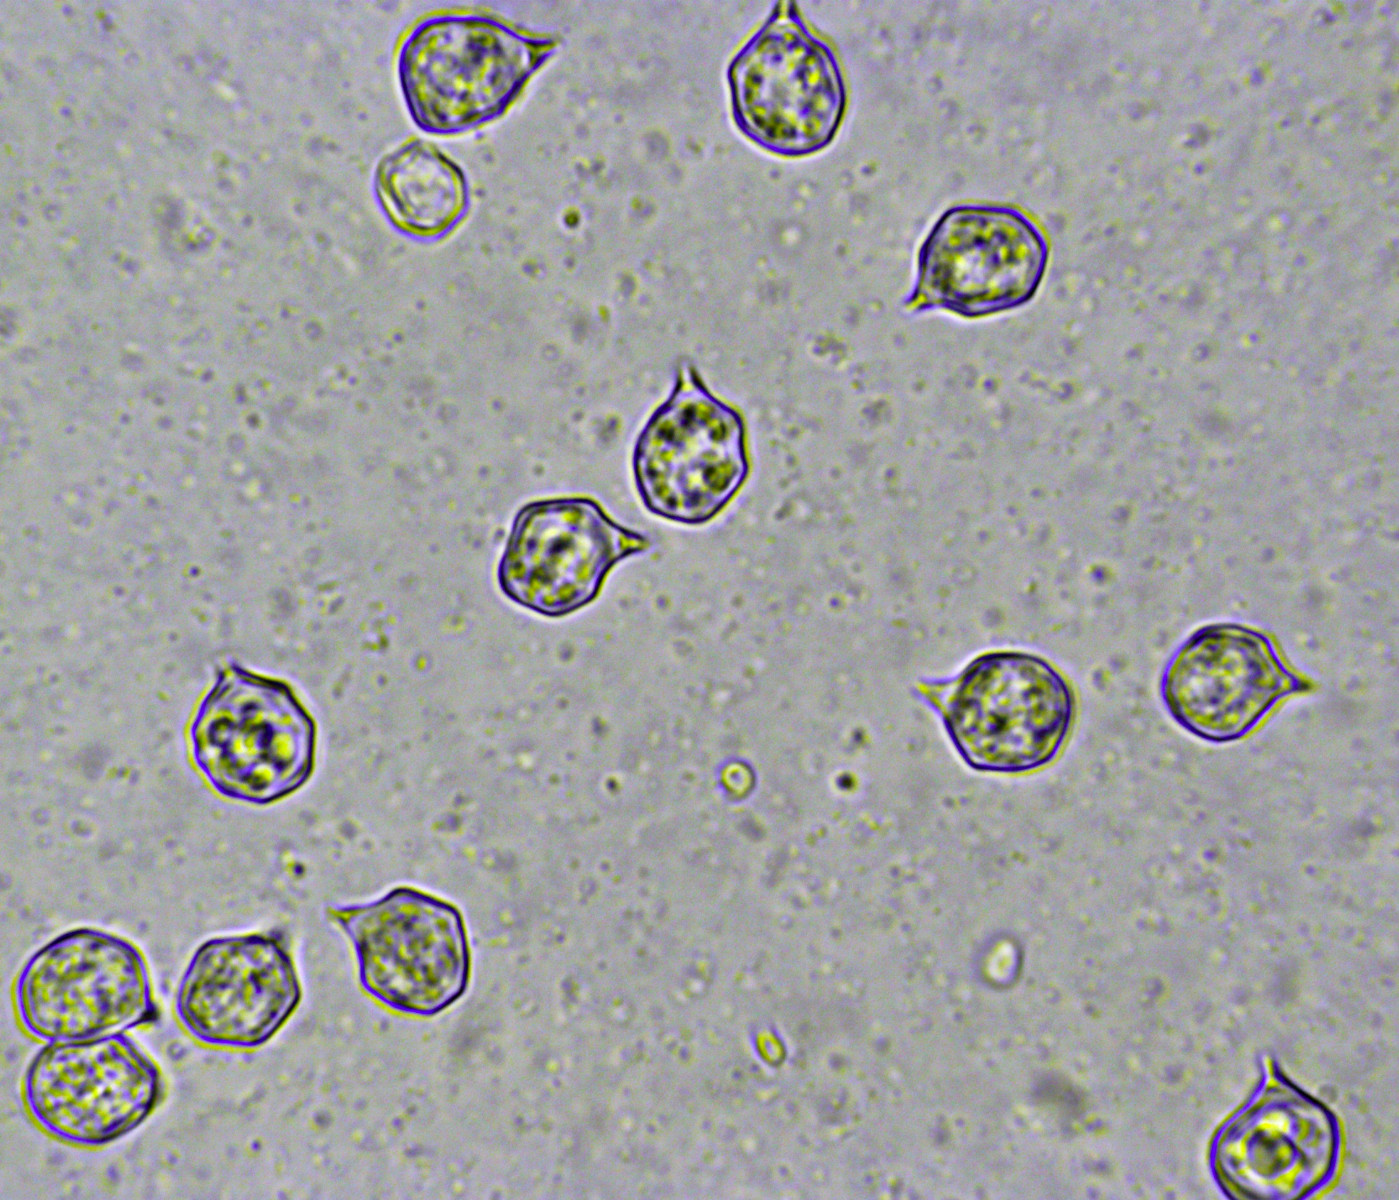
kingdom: Fungi
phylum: Basidiomycota
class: Agaricomycetes
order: Agaricales
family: Entolomataceae
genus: Entoloma
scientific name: Entoloma rhodocylix
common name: fjernbladet rødblad
